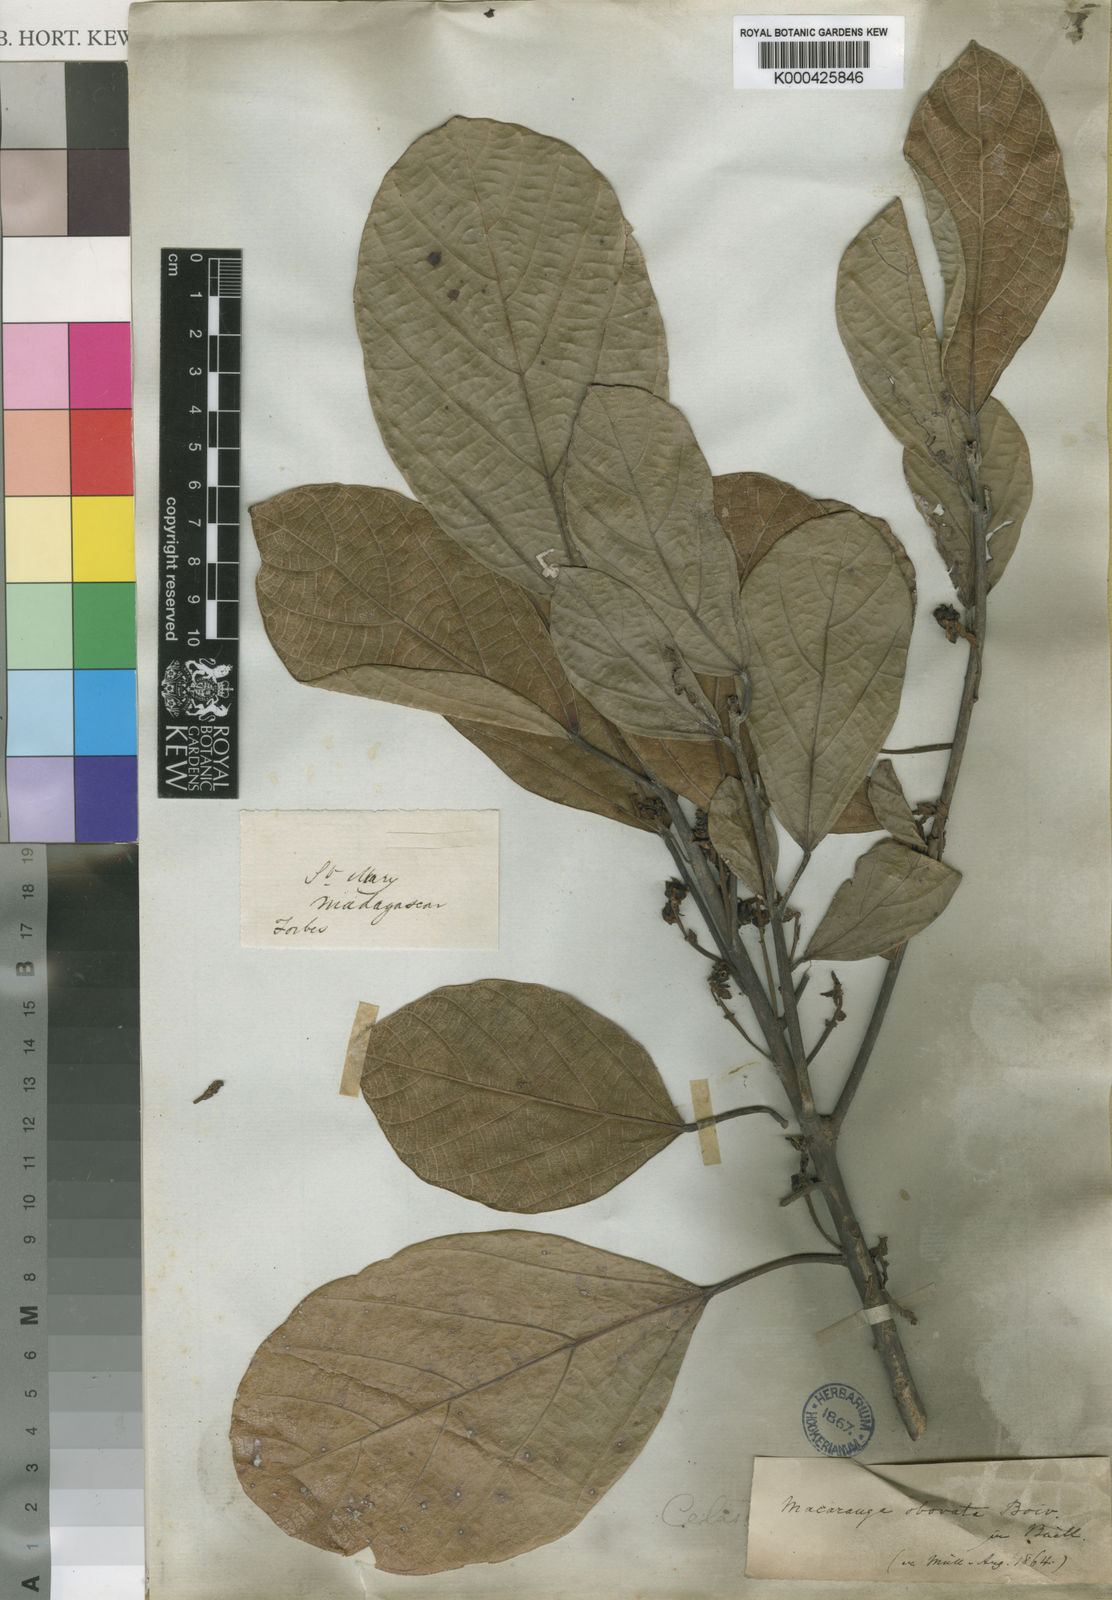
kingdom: Plantae
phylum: Tracheophyta
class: Magnoliopsida
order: Malpighiales
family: Euphorbiaceae
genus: Macaranga
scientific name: Macaranga obovata
